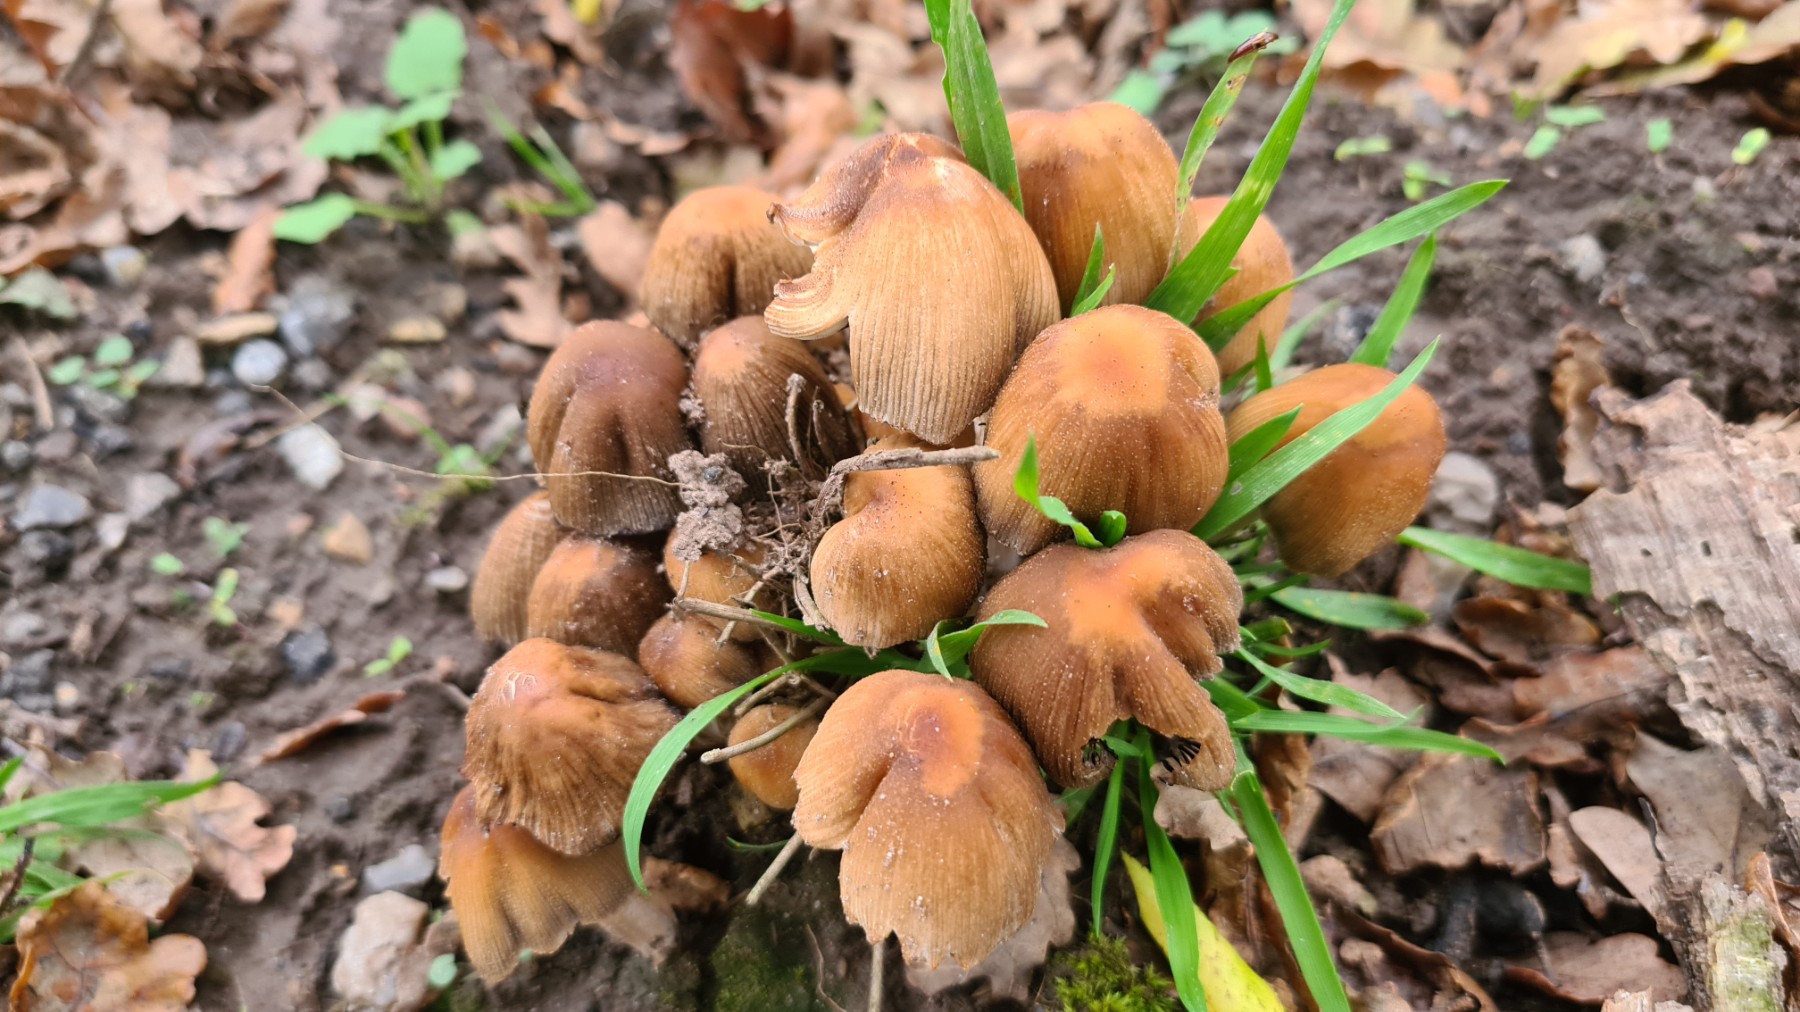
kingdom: Fungi
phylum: Basidiomycota
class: Agaricomycetes
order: Agaricales
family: Psathyrellaceae
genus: Coprinellus
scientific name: Coprinellus micaceus
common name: glimmer-blækhat
